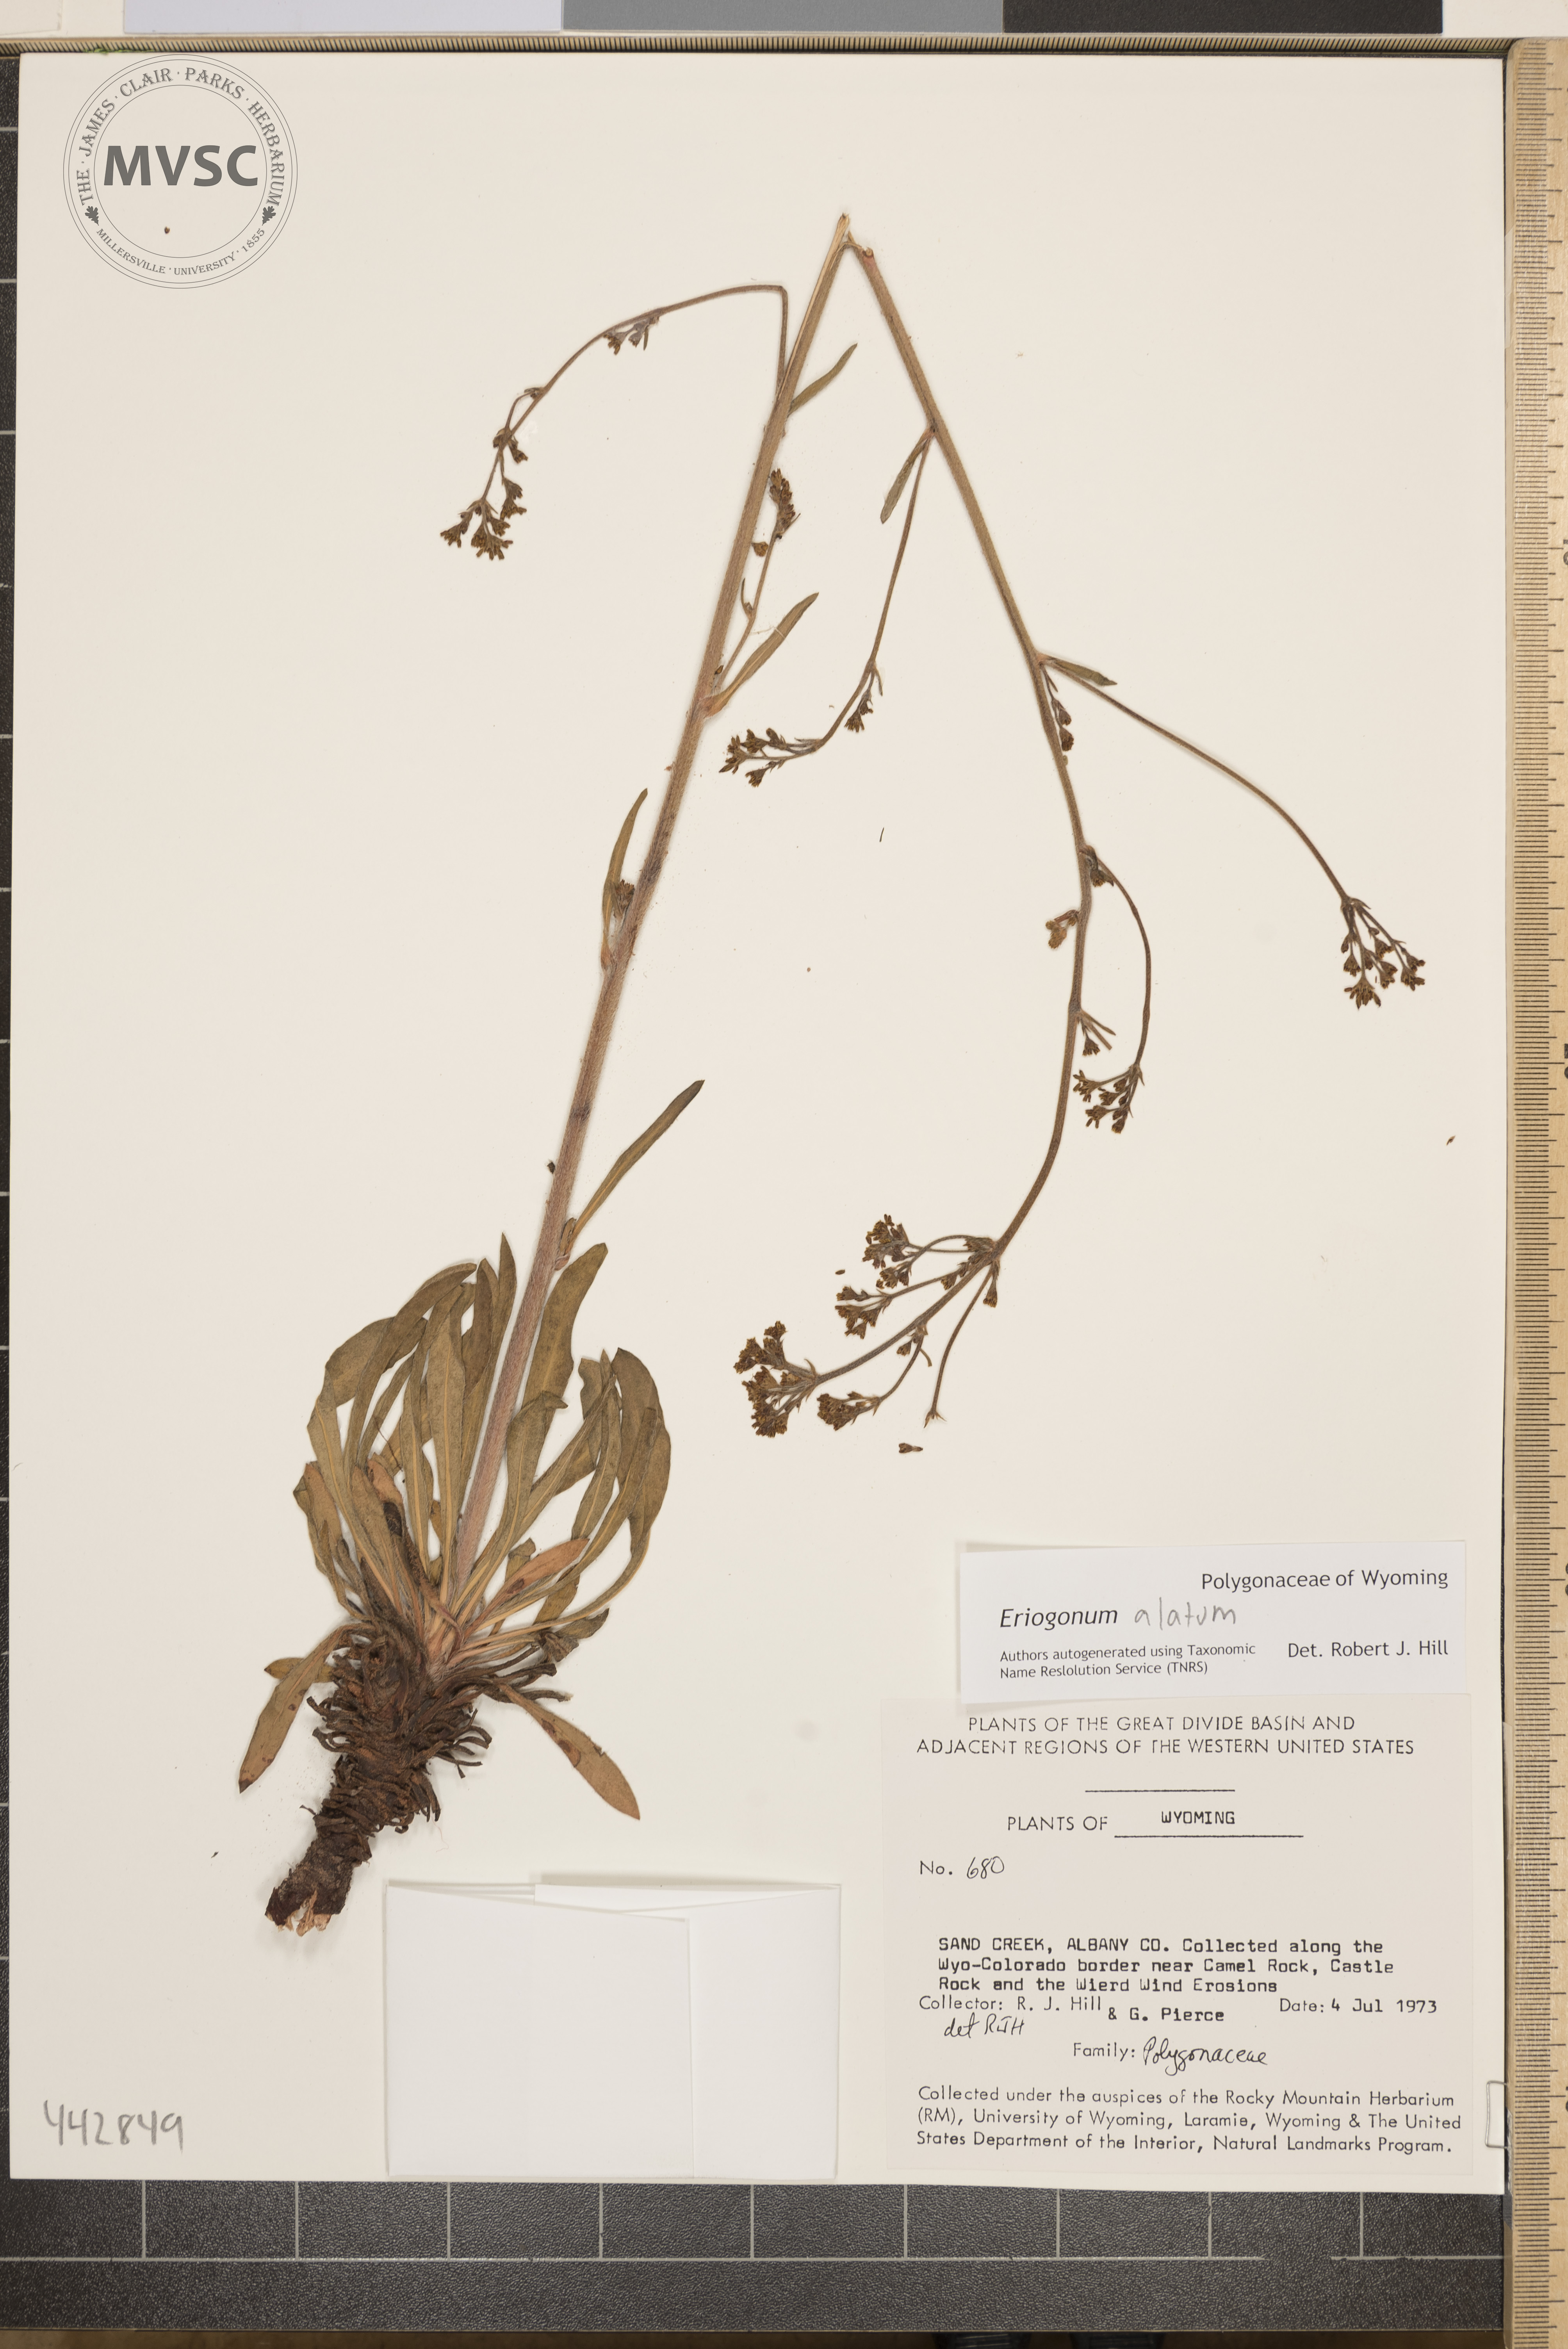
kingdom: Plantae
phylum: Tracheophyta
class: Magnoliopsida
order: Caryophyllales
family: Polygonaceae
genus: Eriogonum
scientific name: Eriogonum alatum
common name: Winged eriogonum
